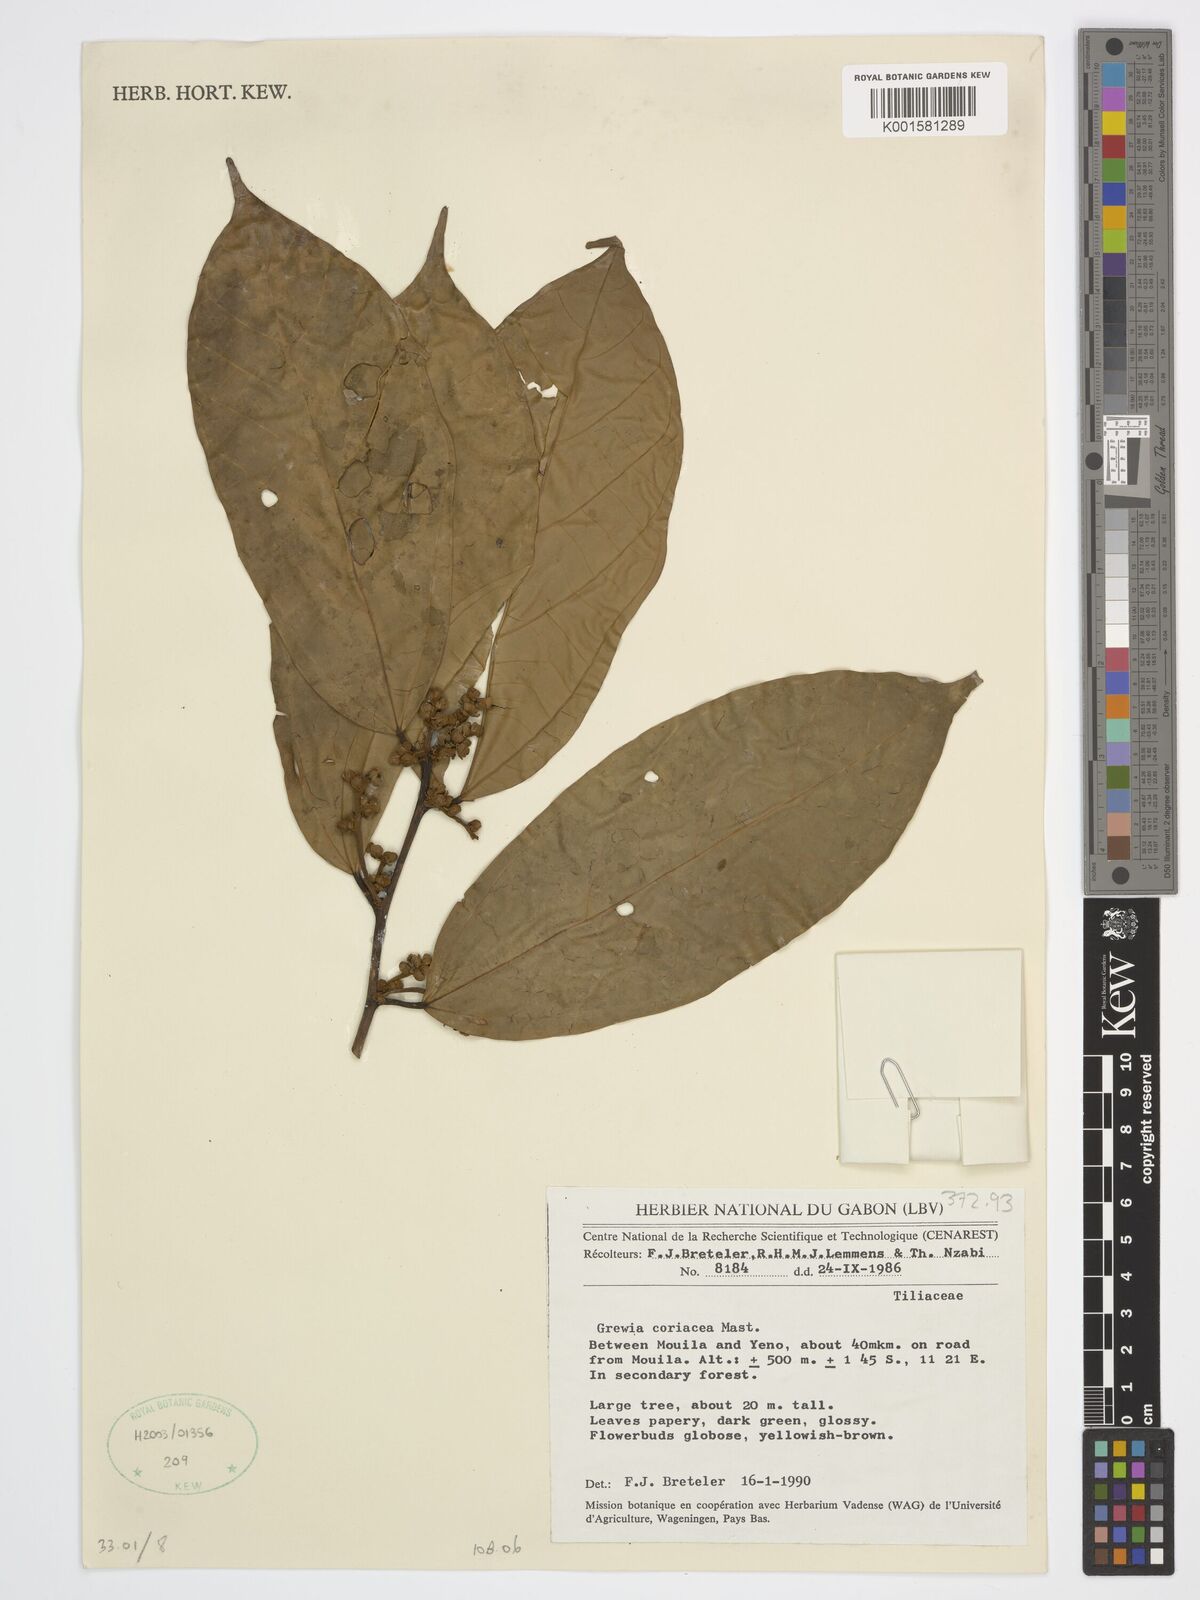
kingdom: Plantae
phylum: Tracheophyta
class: Magnoliopsida
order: Malvales
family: Malvaceae
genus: Microcos
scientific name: Microcos coriacea
